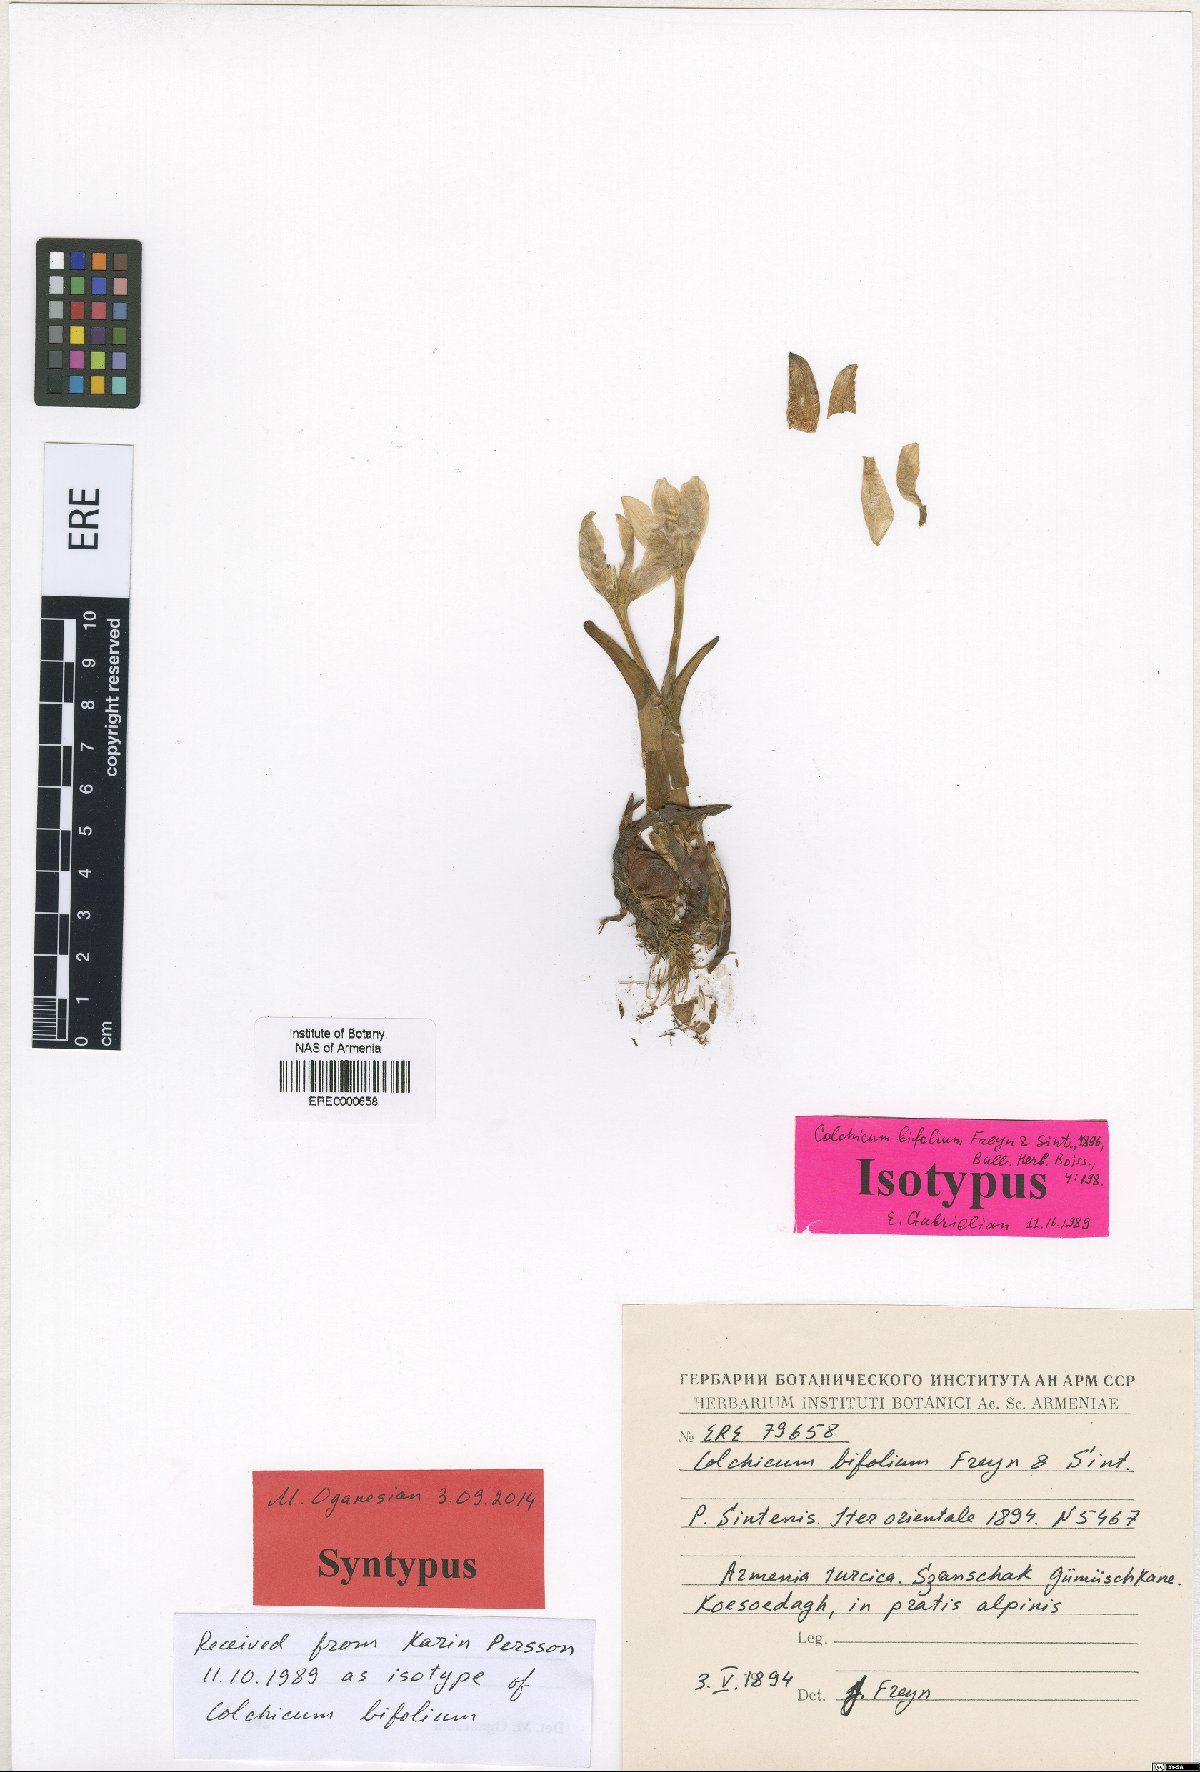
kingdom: Plantae
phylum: Tracheophyta
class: Liliopsida
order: Liliales
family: Colchicaceae
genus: Colchicum
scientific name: Colchicum szovitsii
